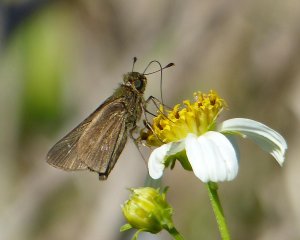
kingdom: Animalia
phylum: Arthropoda
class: Insecta
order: Lepidoptera
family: Hesperiidae
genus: Panoquina
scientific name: Panoquina panoquinoides
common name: Obscure Skipper
